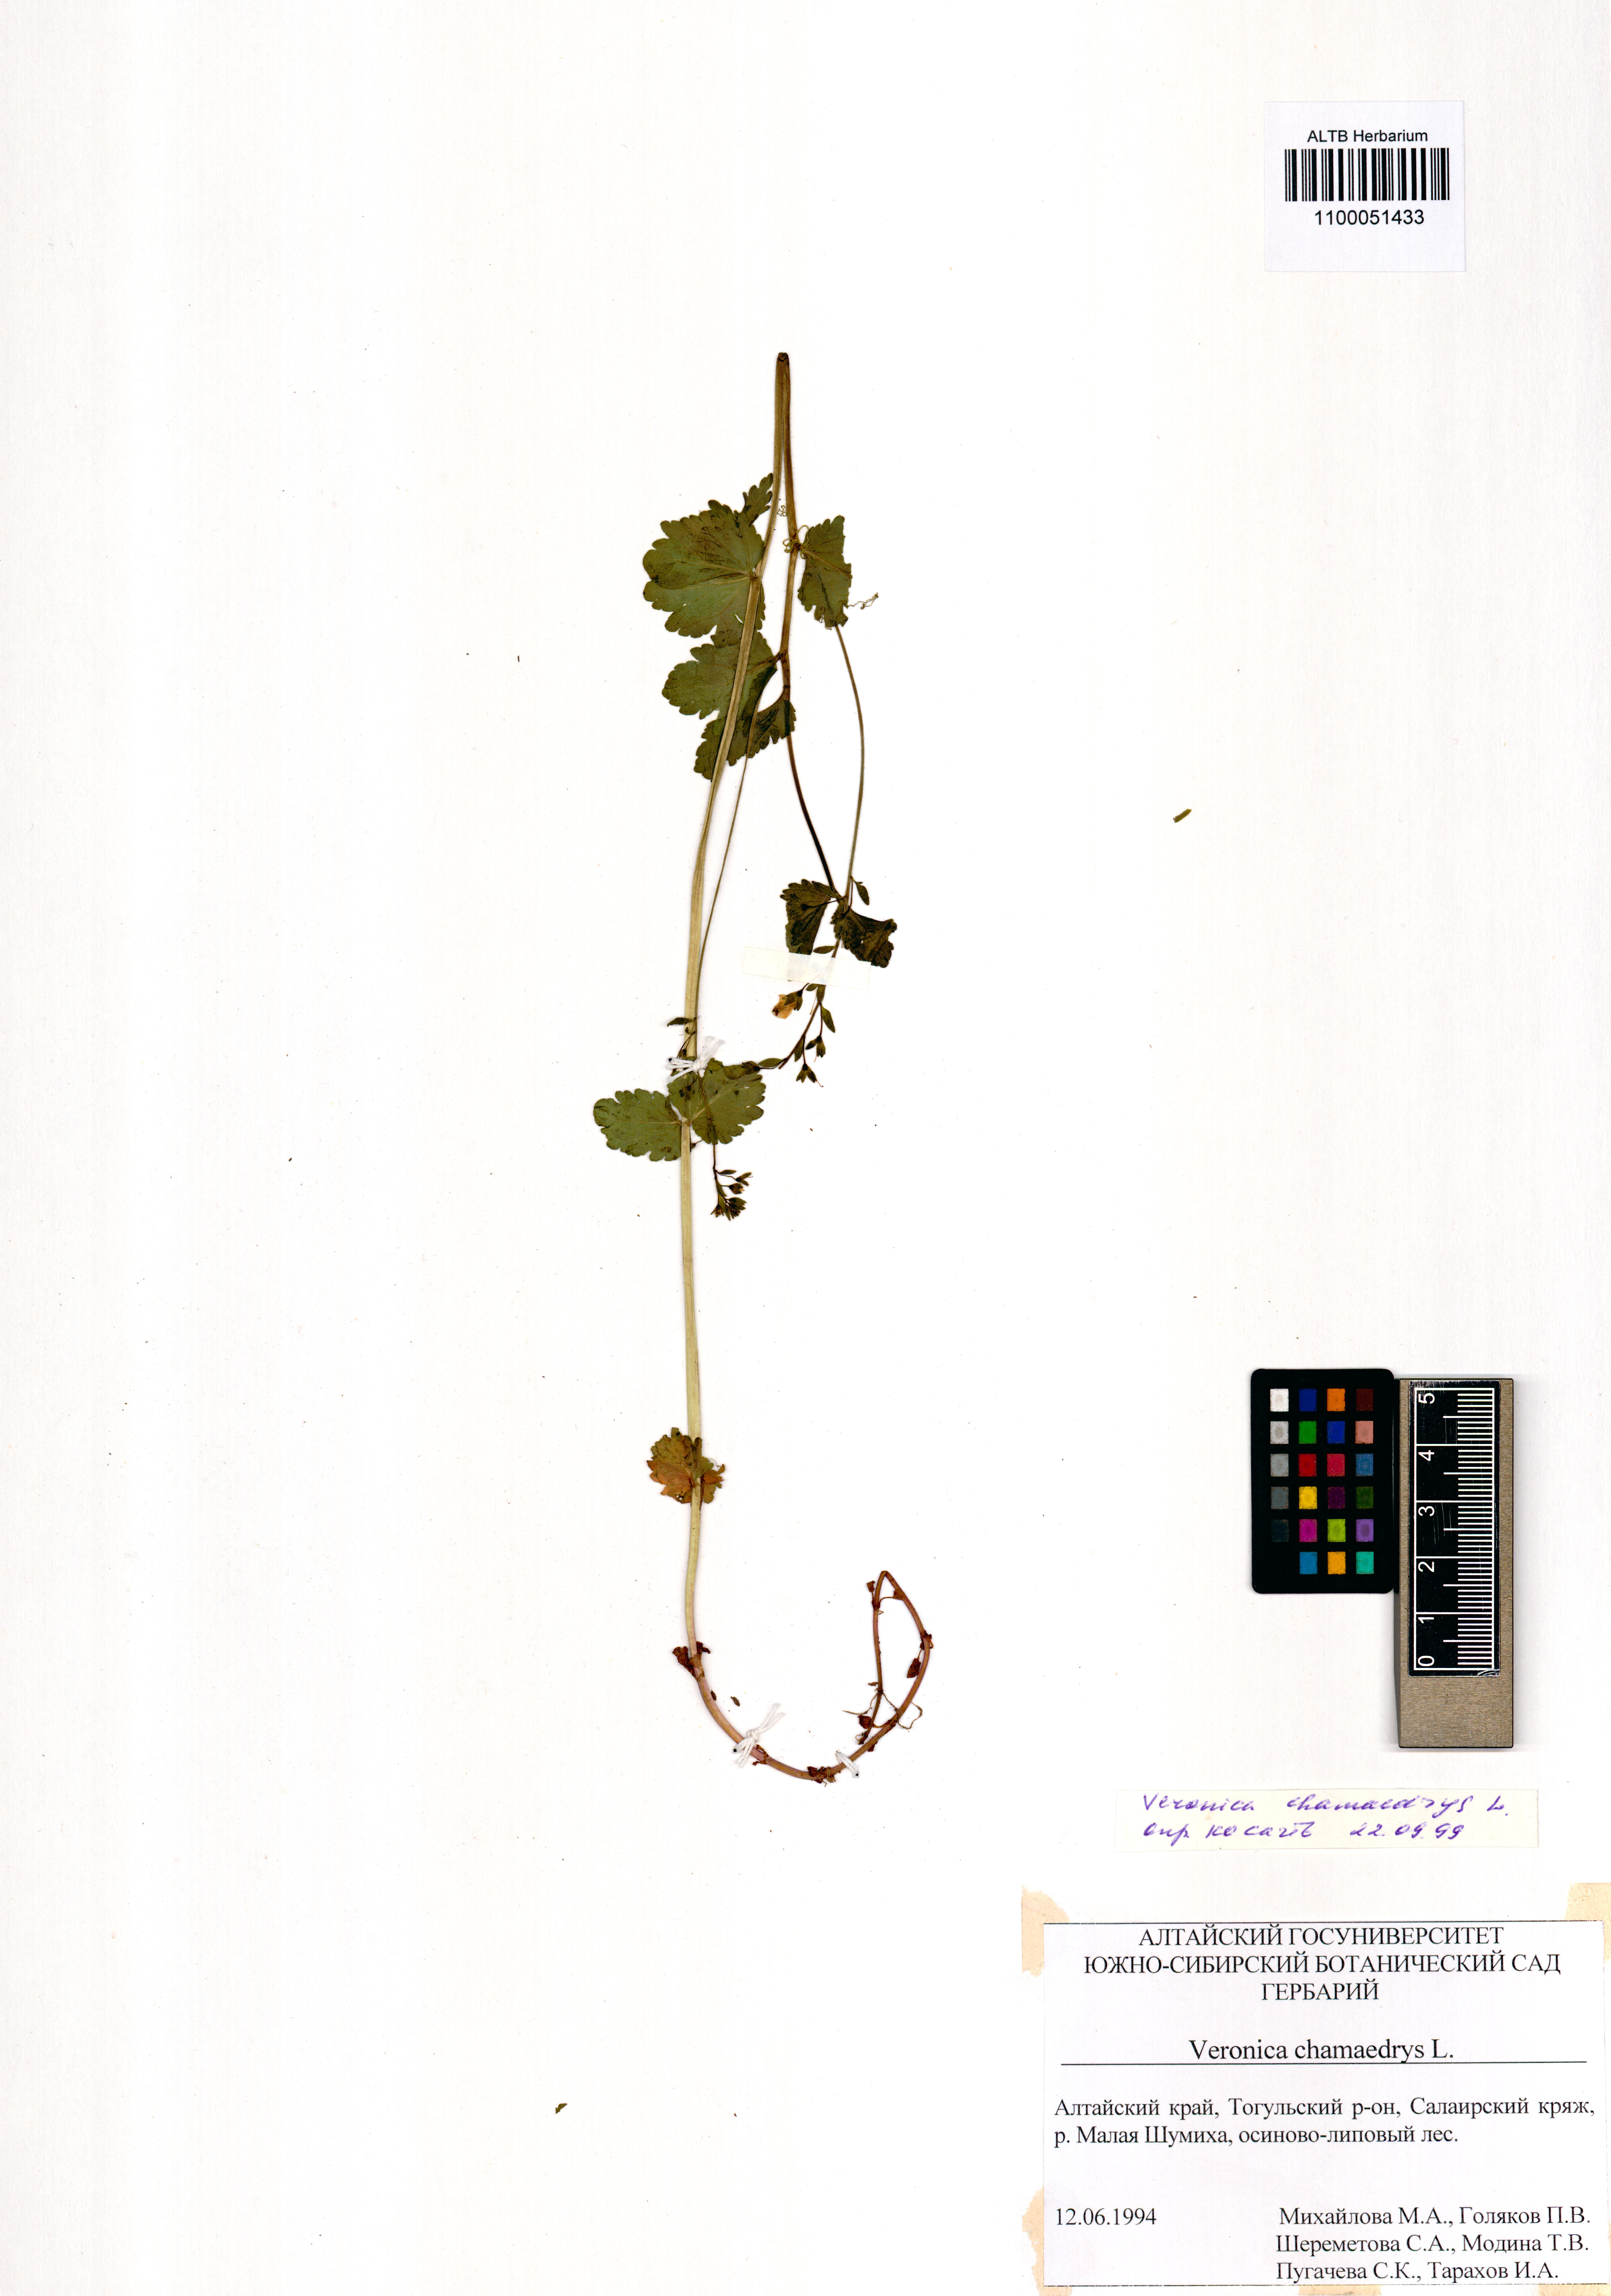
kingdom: Plantae
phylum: Tracheophyta
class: Magnoliopsida
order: Lamiales
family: Plantaginaceae
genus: Veronica
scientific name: Veronica chamaedrys
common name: Germander speedwell
